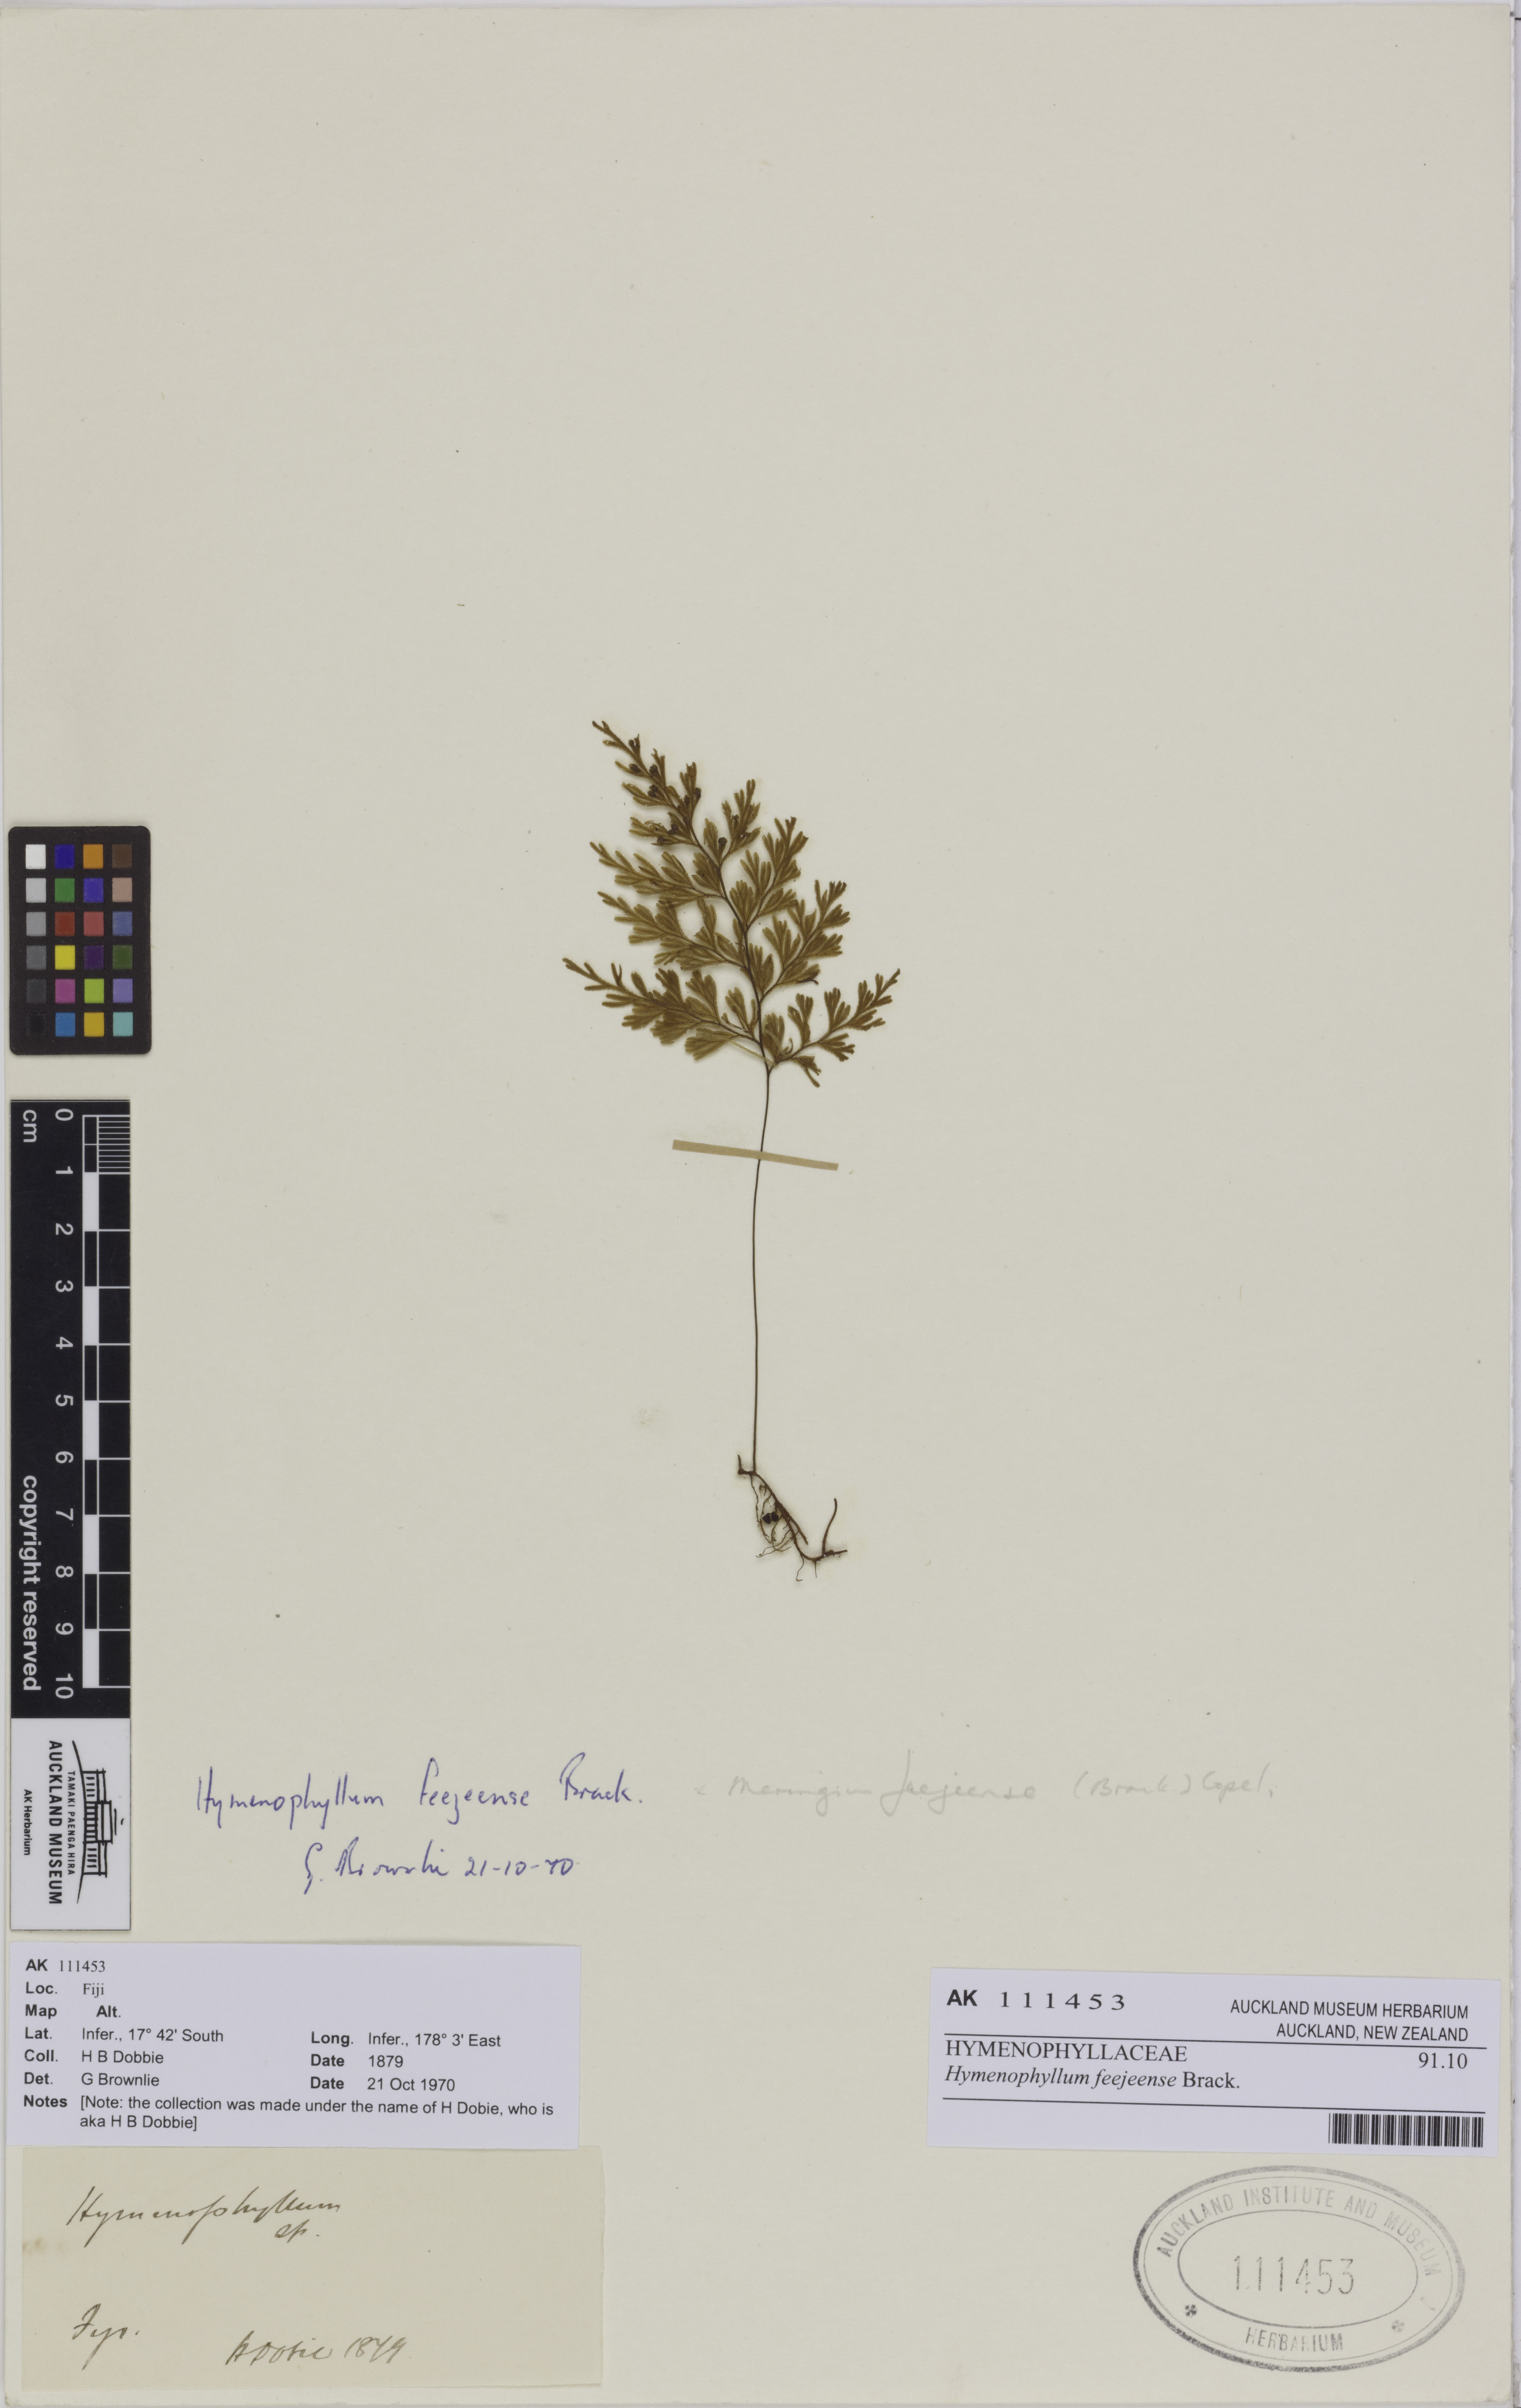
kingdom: Plantae
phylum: Tracheophyta
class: Polypodiopsida
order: Hymenophyllales
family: Hymenophyllaceae
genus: Hymenophyllum
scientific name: Hymenophyllum feejeense
